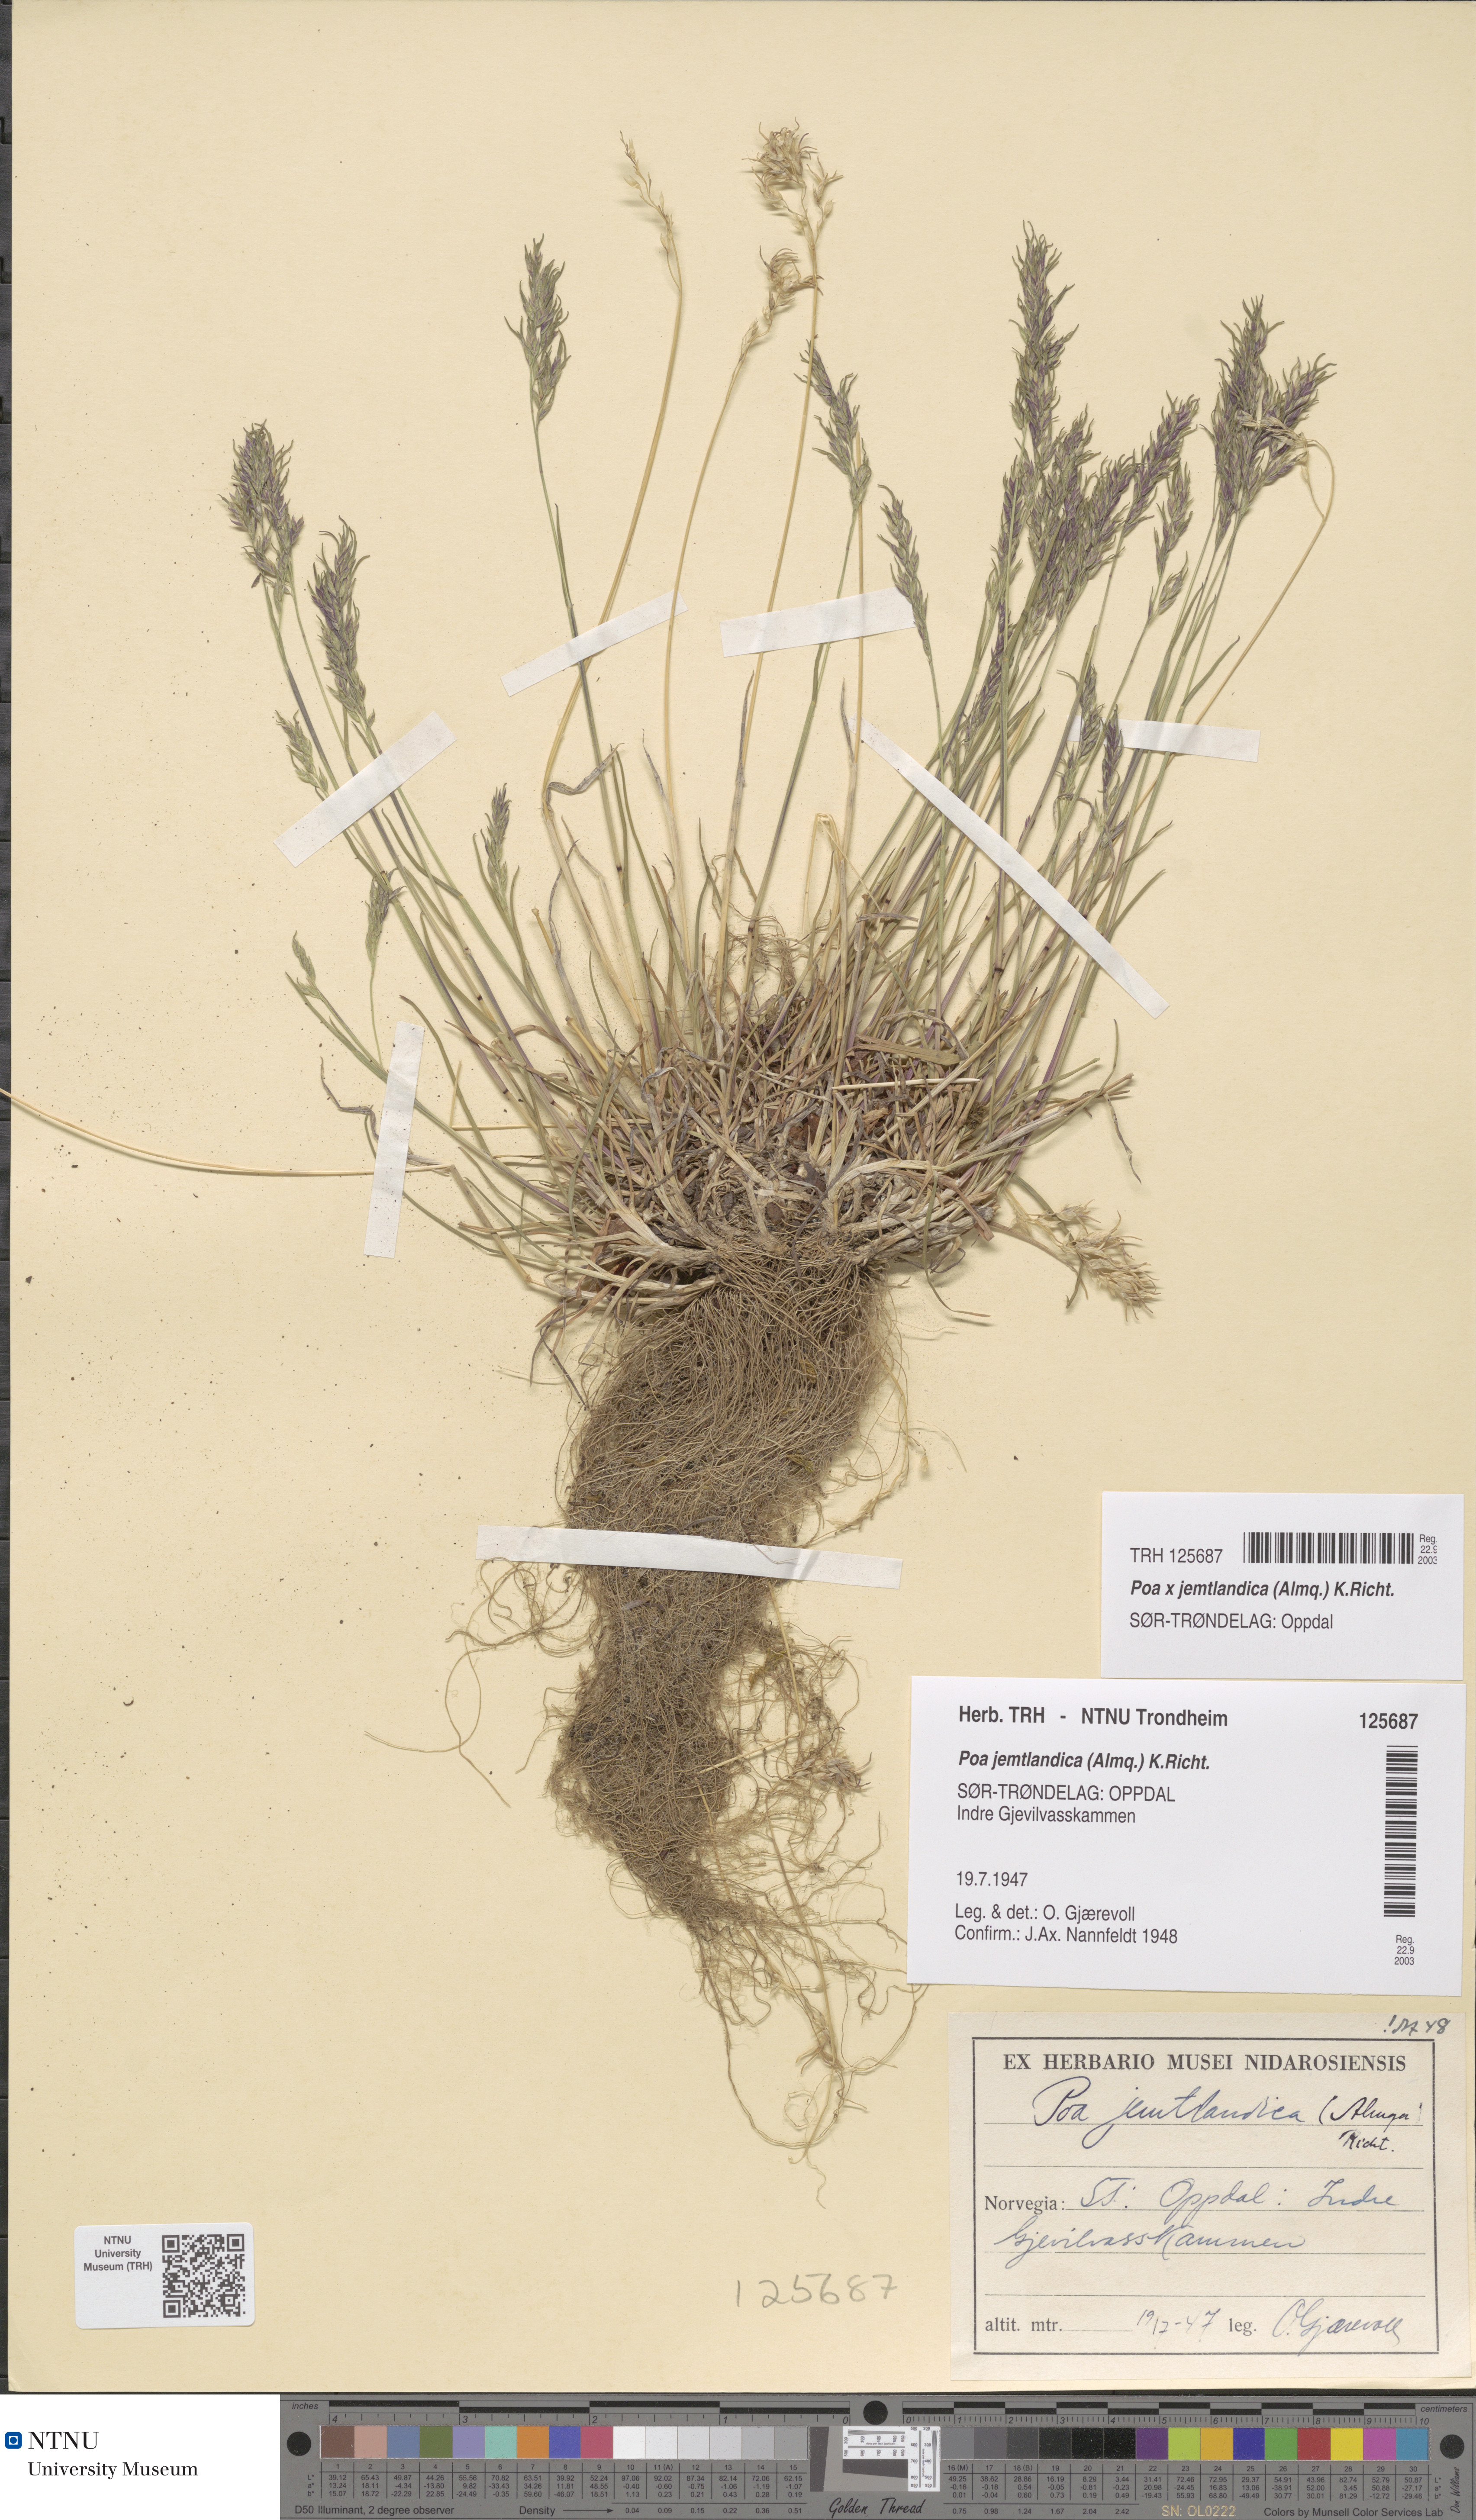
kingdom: Plantae
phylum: Tracheophyta
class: Liliopsida
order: Poales
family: Poaceae
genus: Poa
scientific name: Poa jemtlandica
